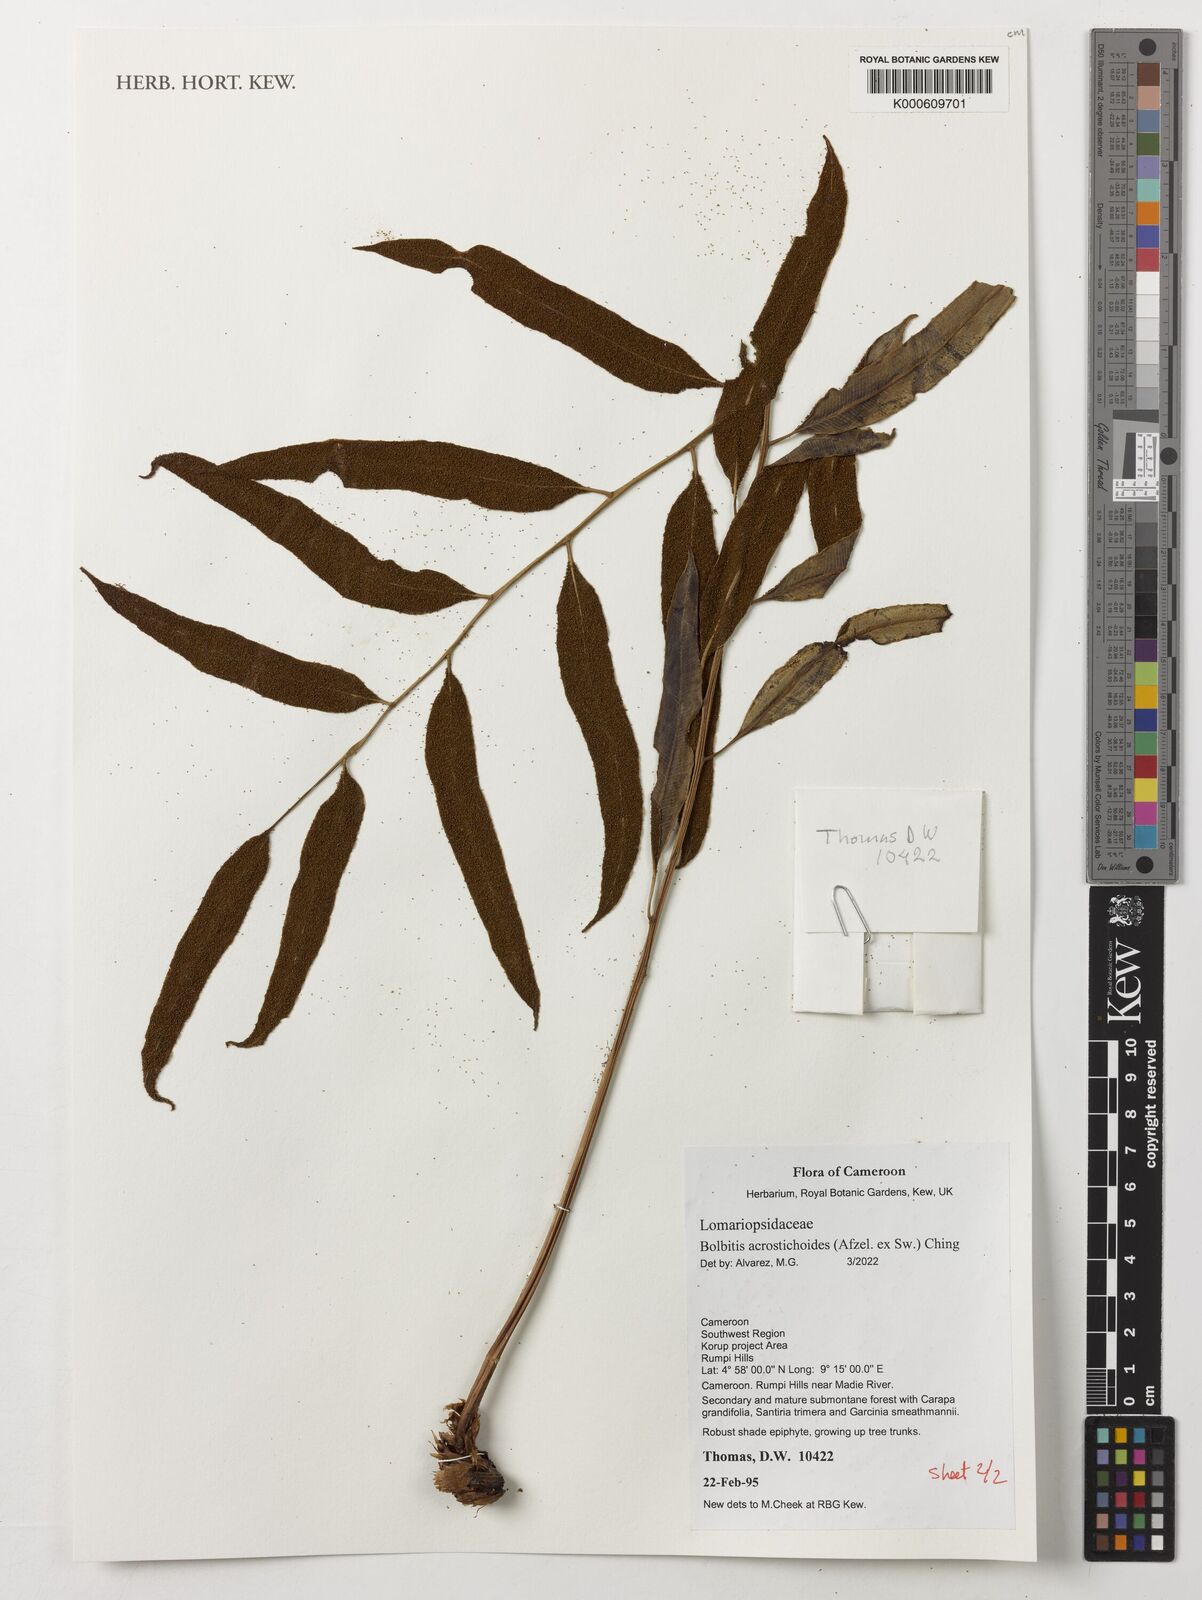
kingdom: Plantae
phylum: Tracheophyta
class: Polypodiopsida
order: Polypodiales
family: Dryopteridaceae
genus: Bolbitis
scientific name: Bolbitis acrostichoides
